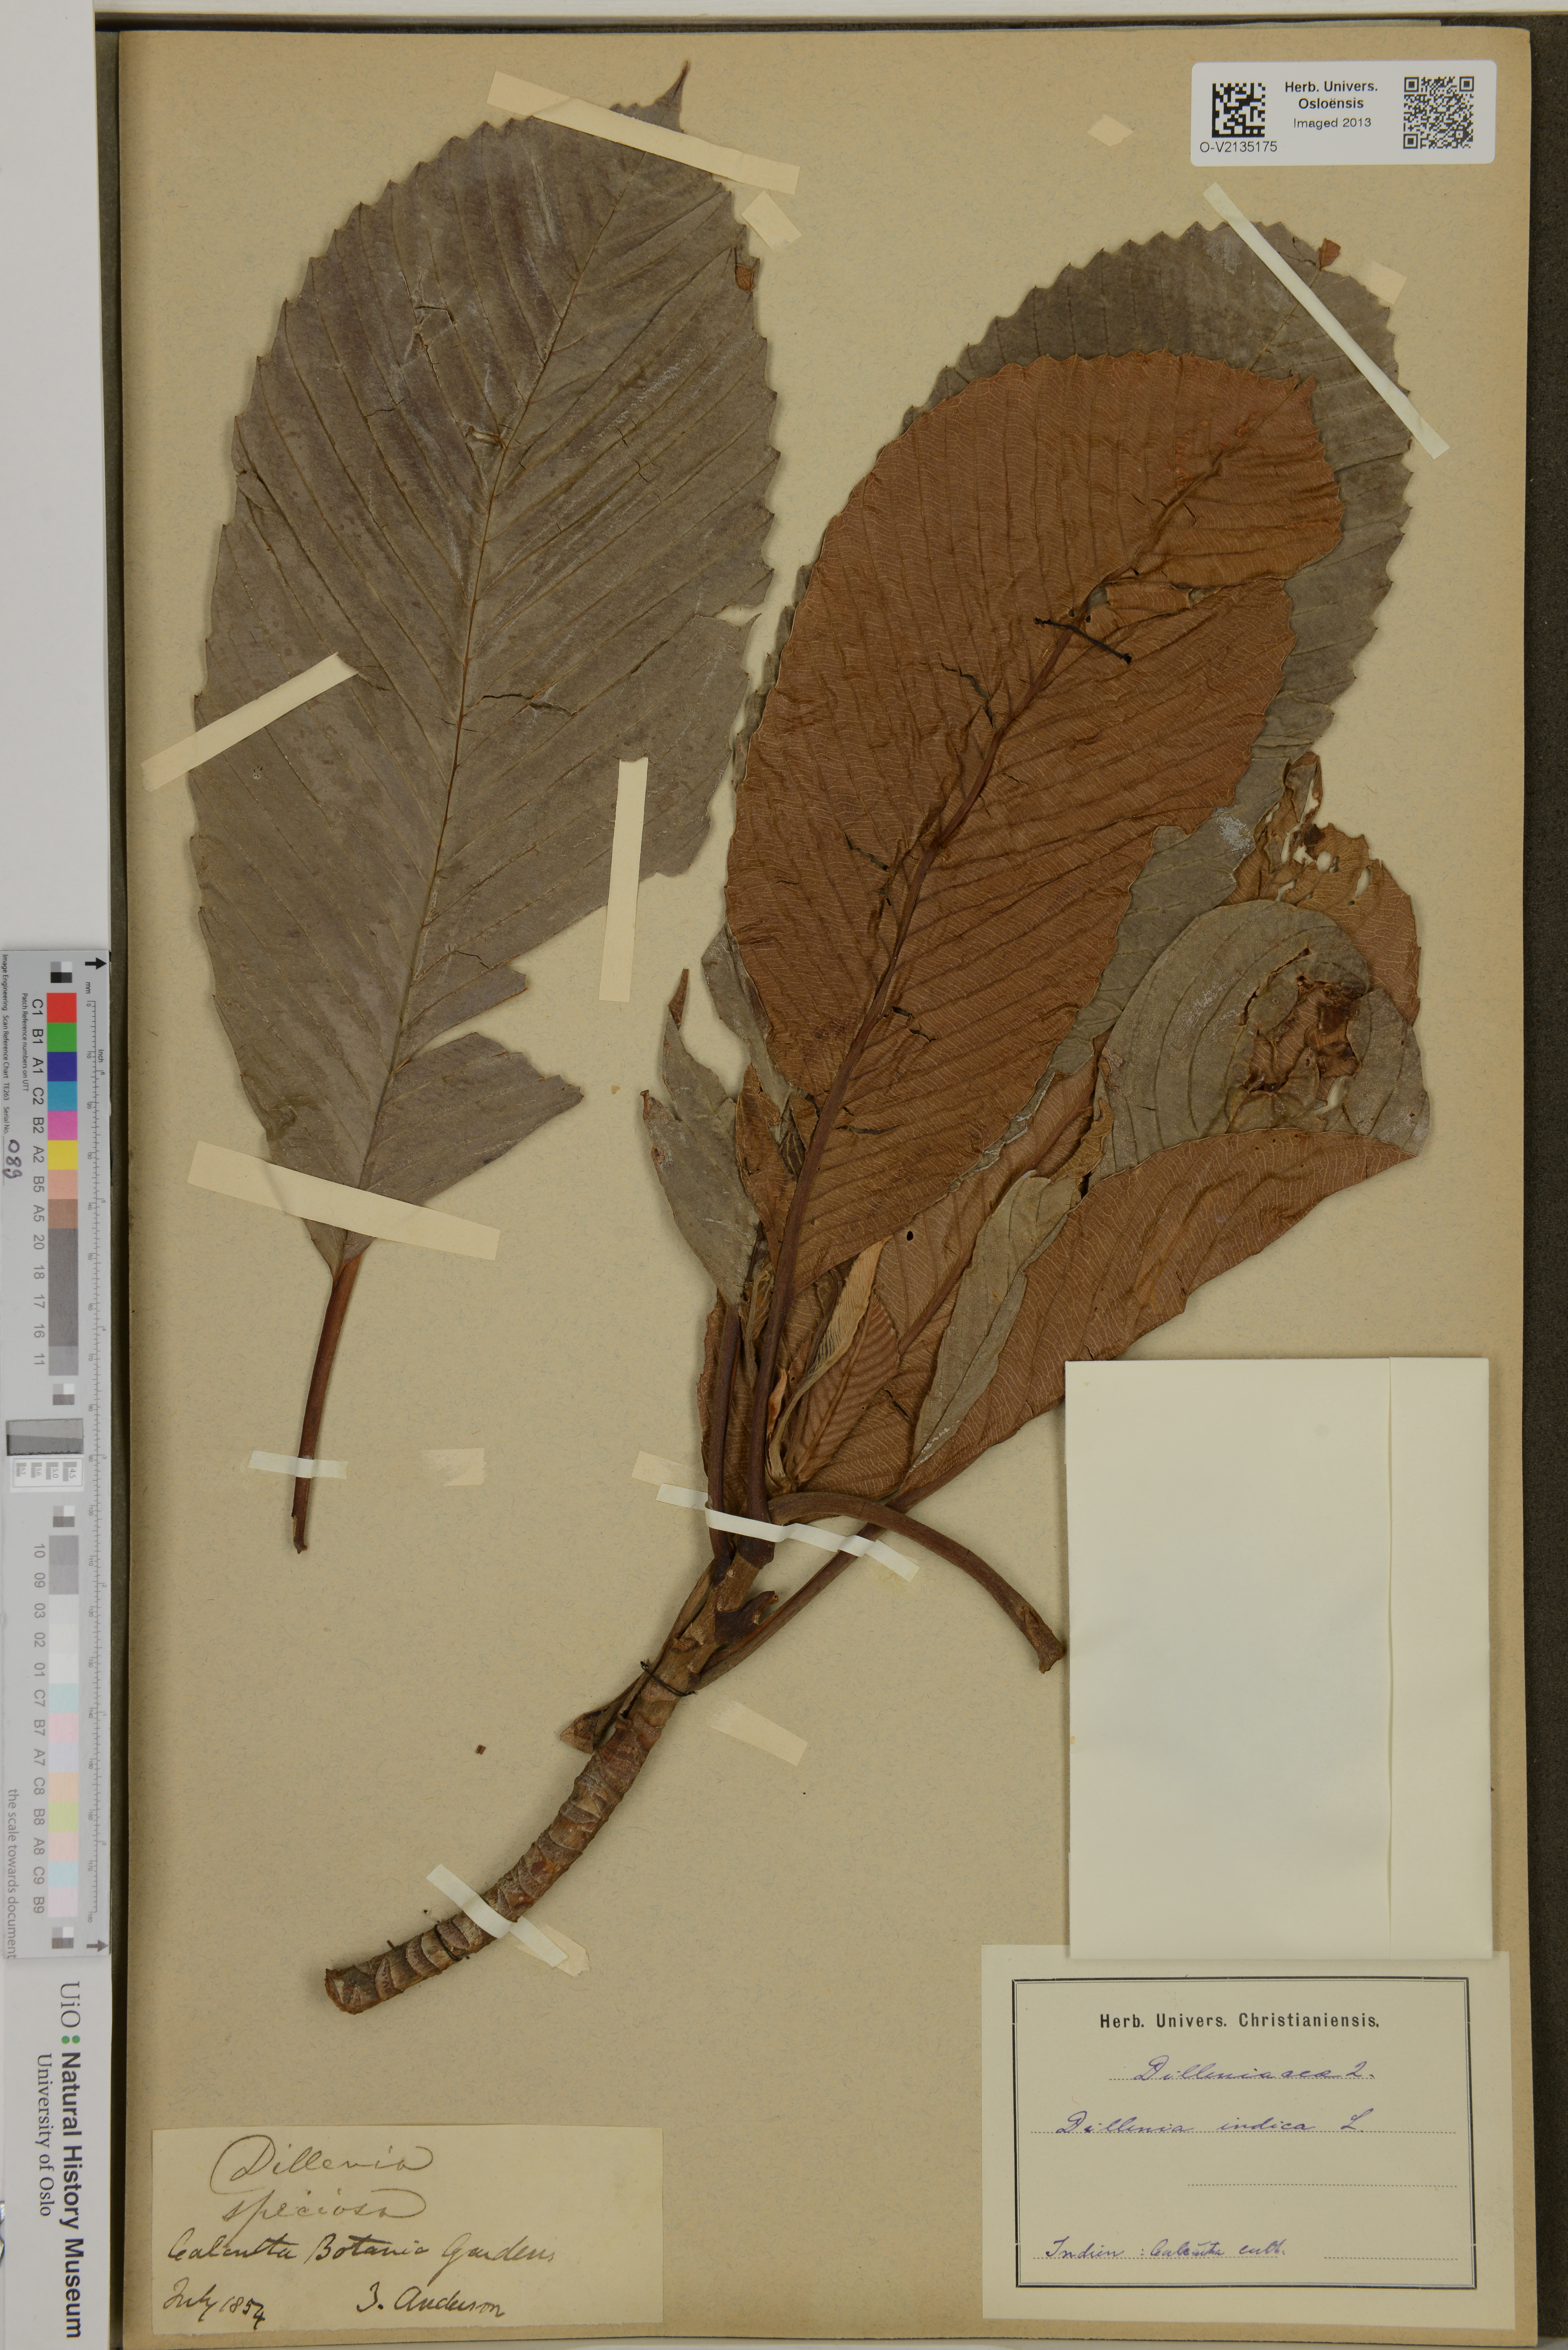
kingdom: Plantae
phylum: Tracheophyta
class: Magnoliopsida
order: Dilleniales
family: Dilleniaceae
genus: Dillenia
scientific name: Dillenia indica
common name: Elephant apple
